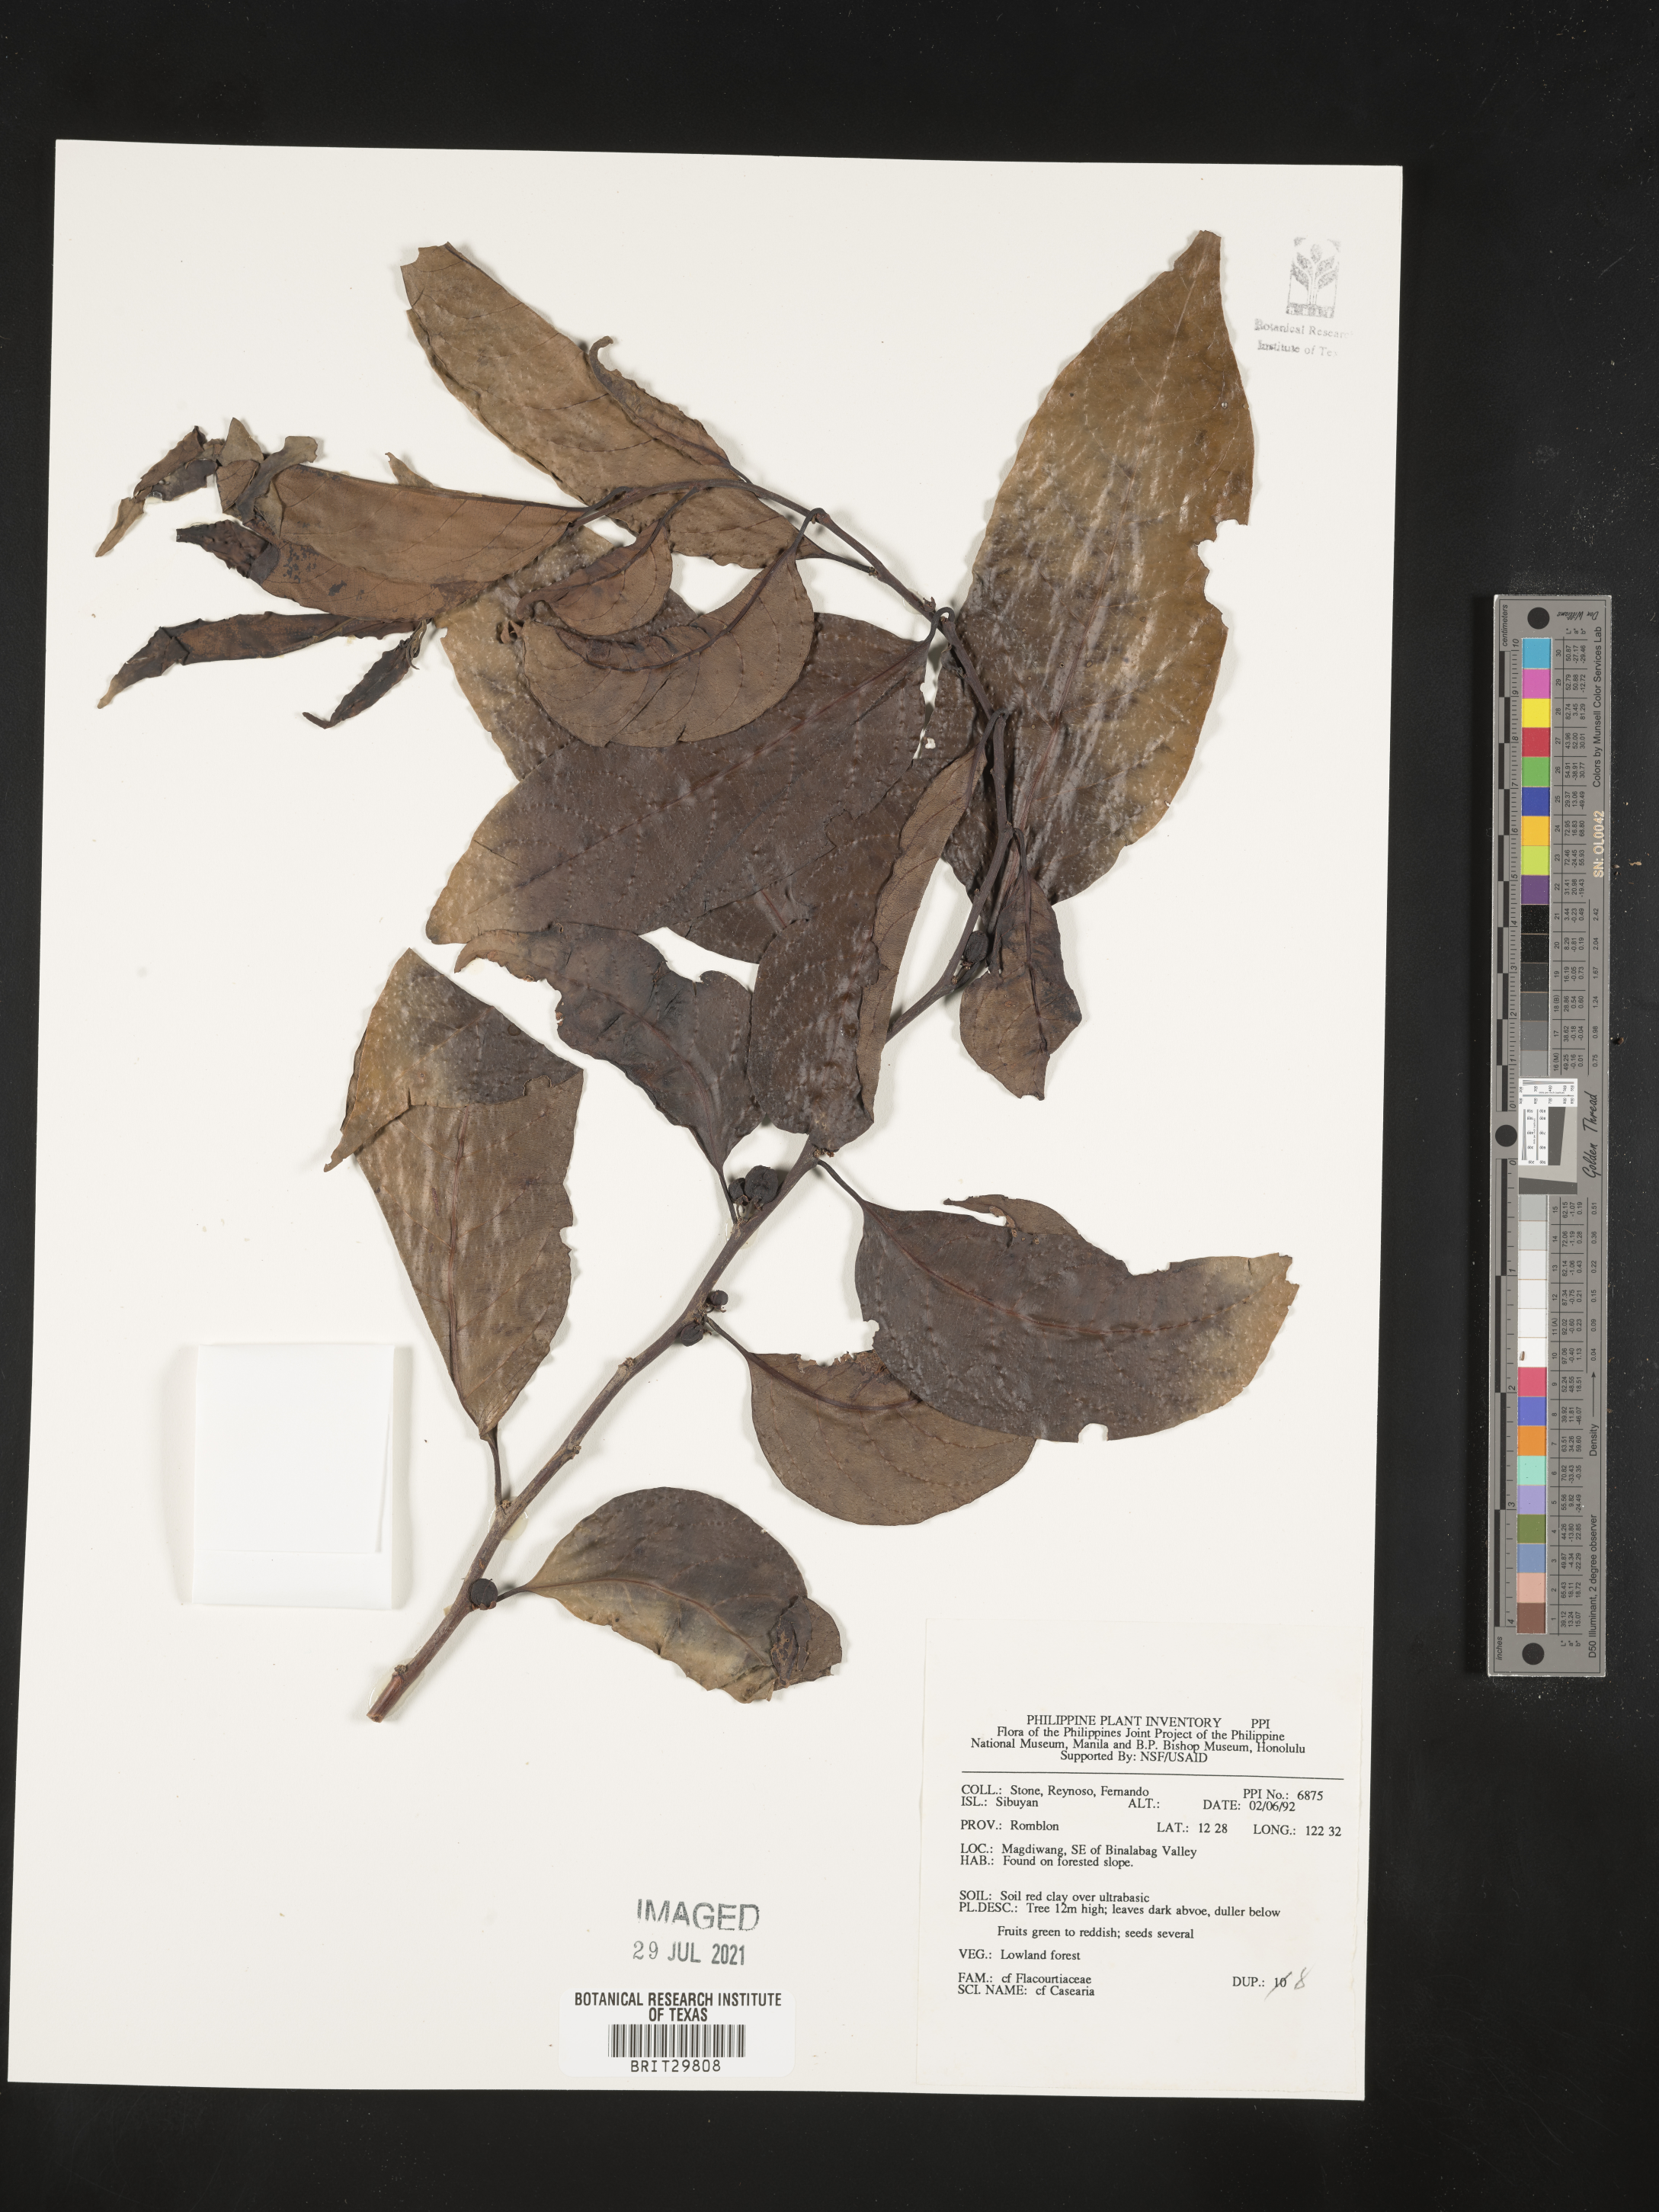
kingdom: Plantae
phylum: Tracheophyta
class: Magnoliopsida
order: Malpighiales
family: Salicaceae
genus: Casearia
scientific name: Casearia
